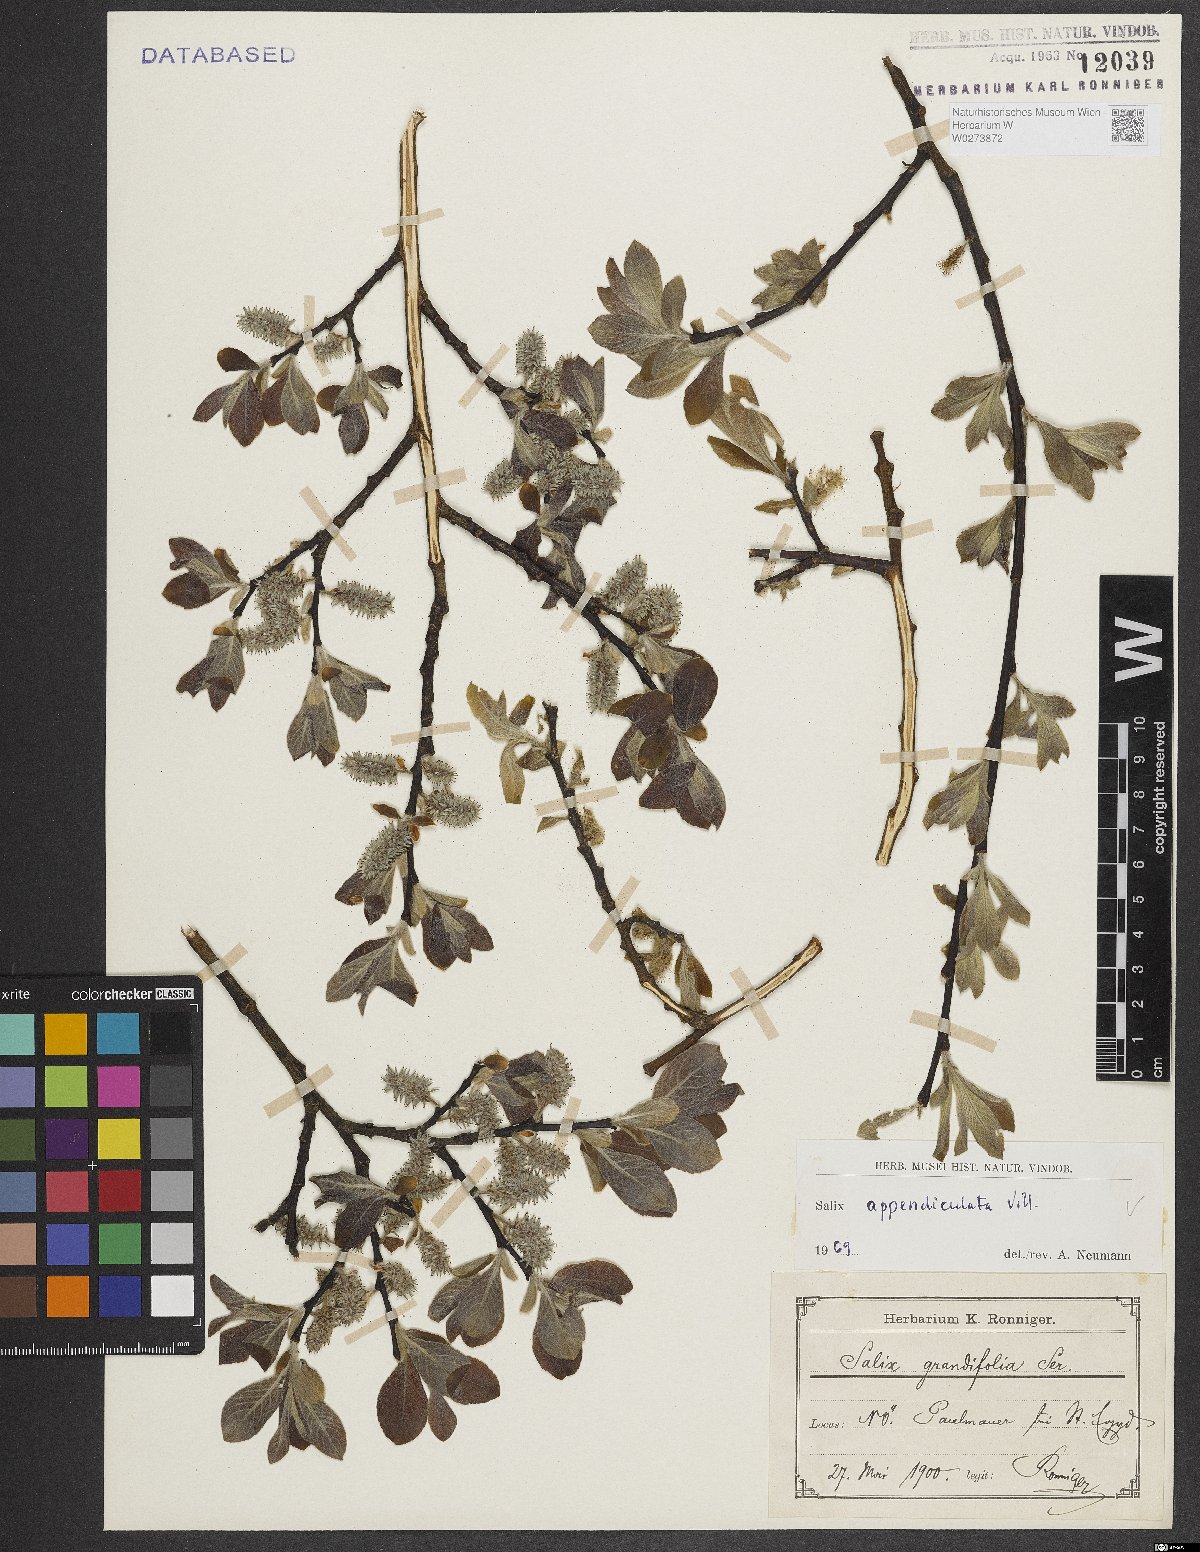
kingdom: Plantae
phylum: Tracheophyta
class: Magnoliopsida
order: Malpighiales
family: Salicaceae
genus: Salix
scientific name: Salix appendiculata
